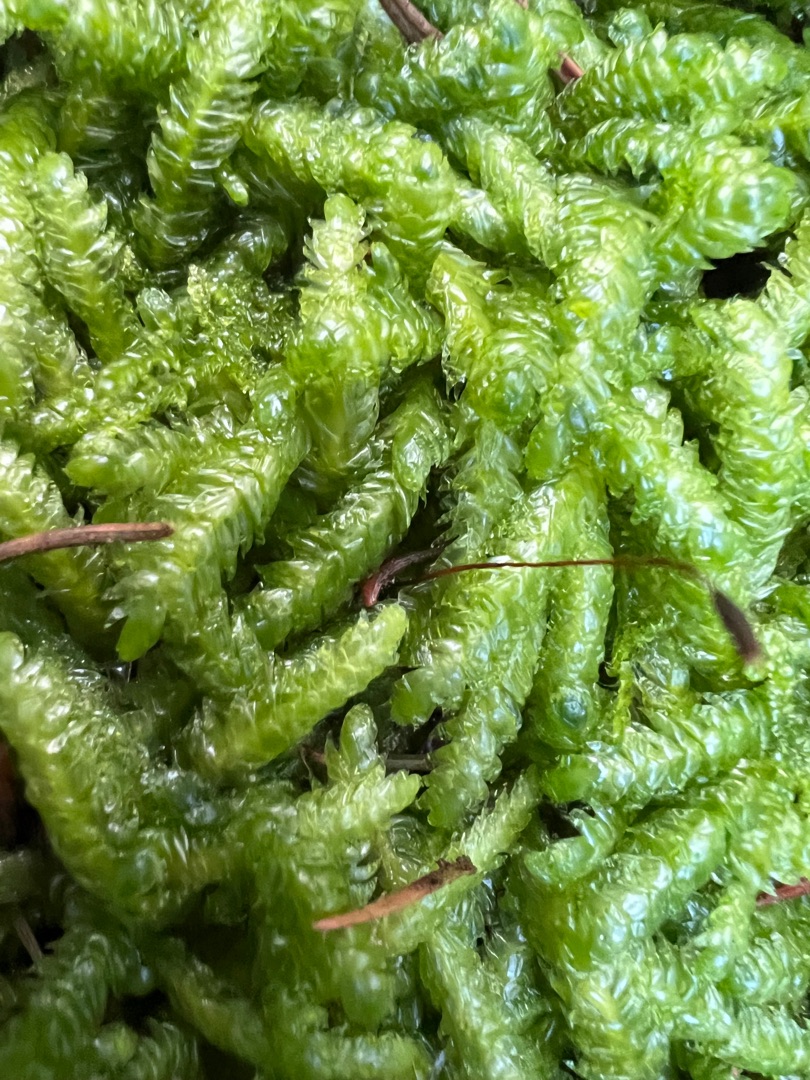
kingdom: Plantae
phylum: Bryophyta
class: Bryopsida
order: Hypnales
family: Plagiotheciaceae
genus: Plagiothecium
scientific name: Plagiothecium undulatum
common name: Bølget tæppemos
